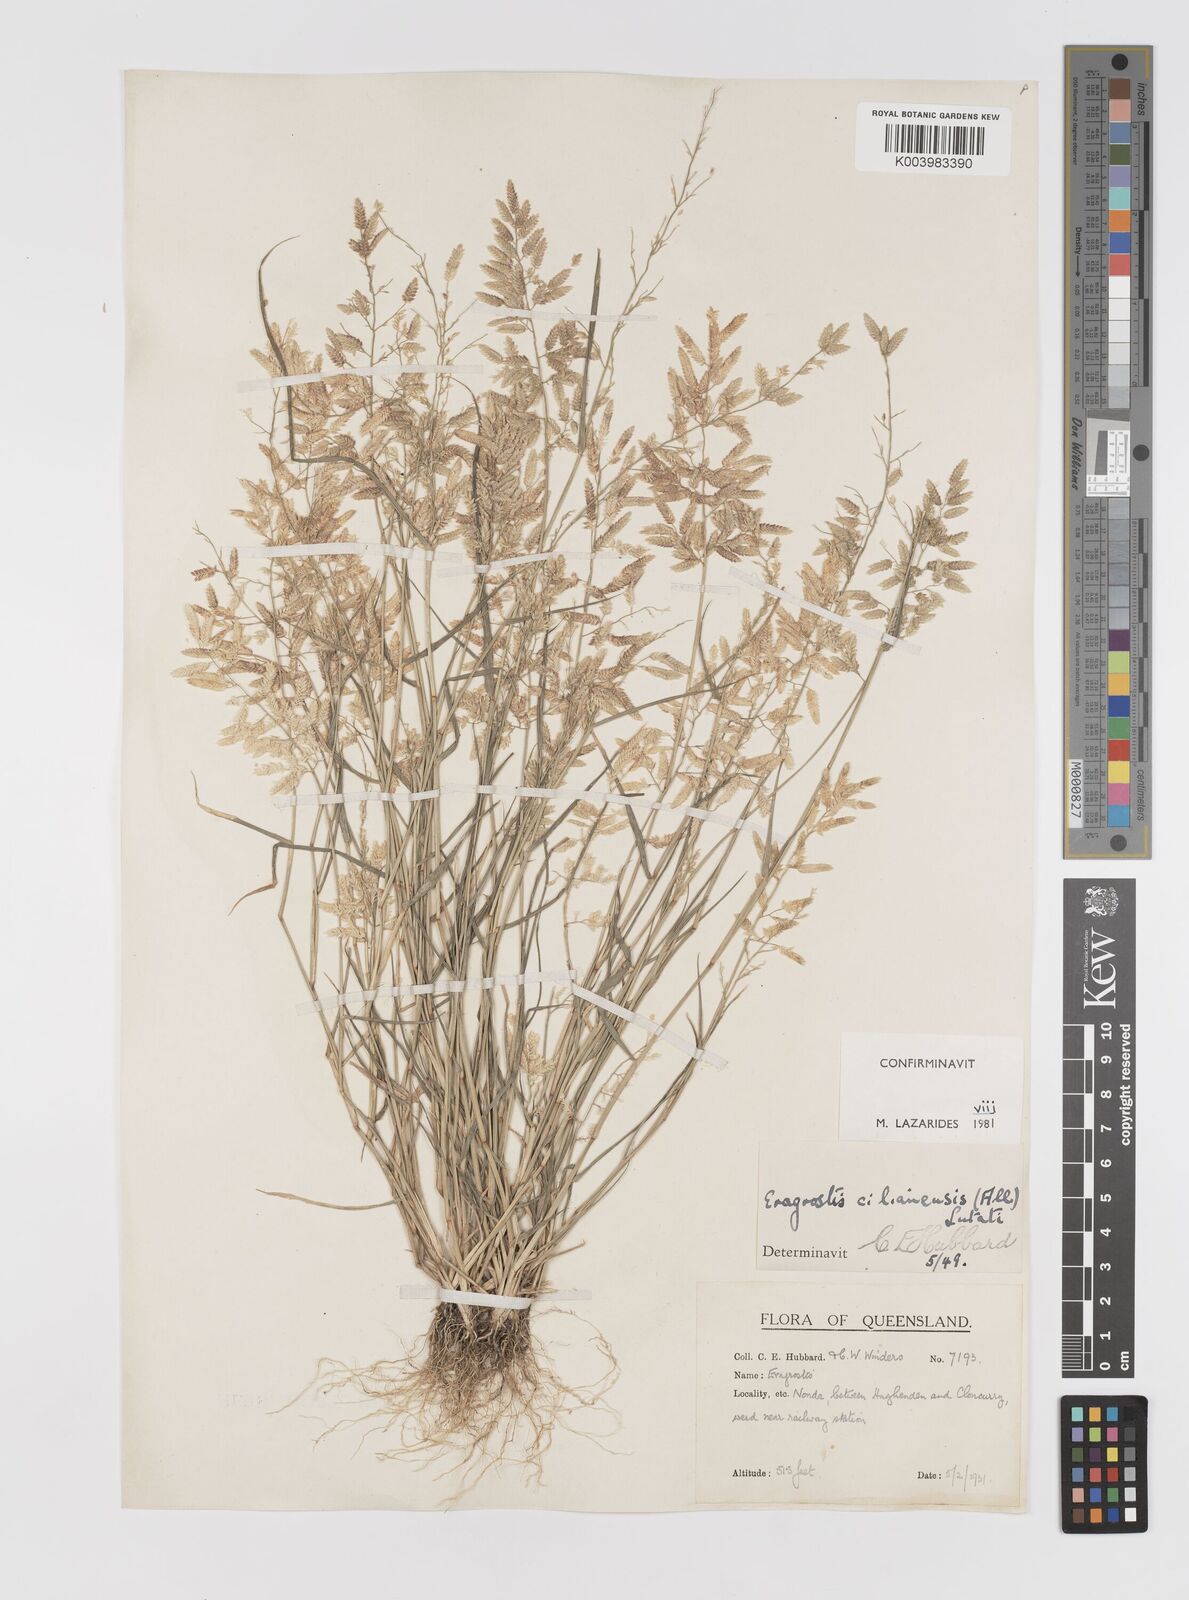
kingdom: Plantae
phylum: Tracheophyta
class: Liliopsida
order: Poales
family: Poaceae
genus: Eragrostis
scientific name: Eragrostis cilianensis
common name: Stinkgrass
